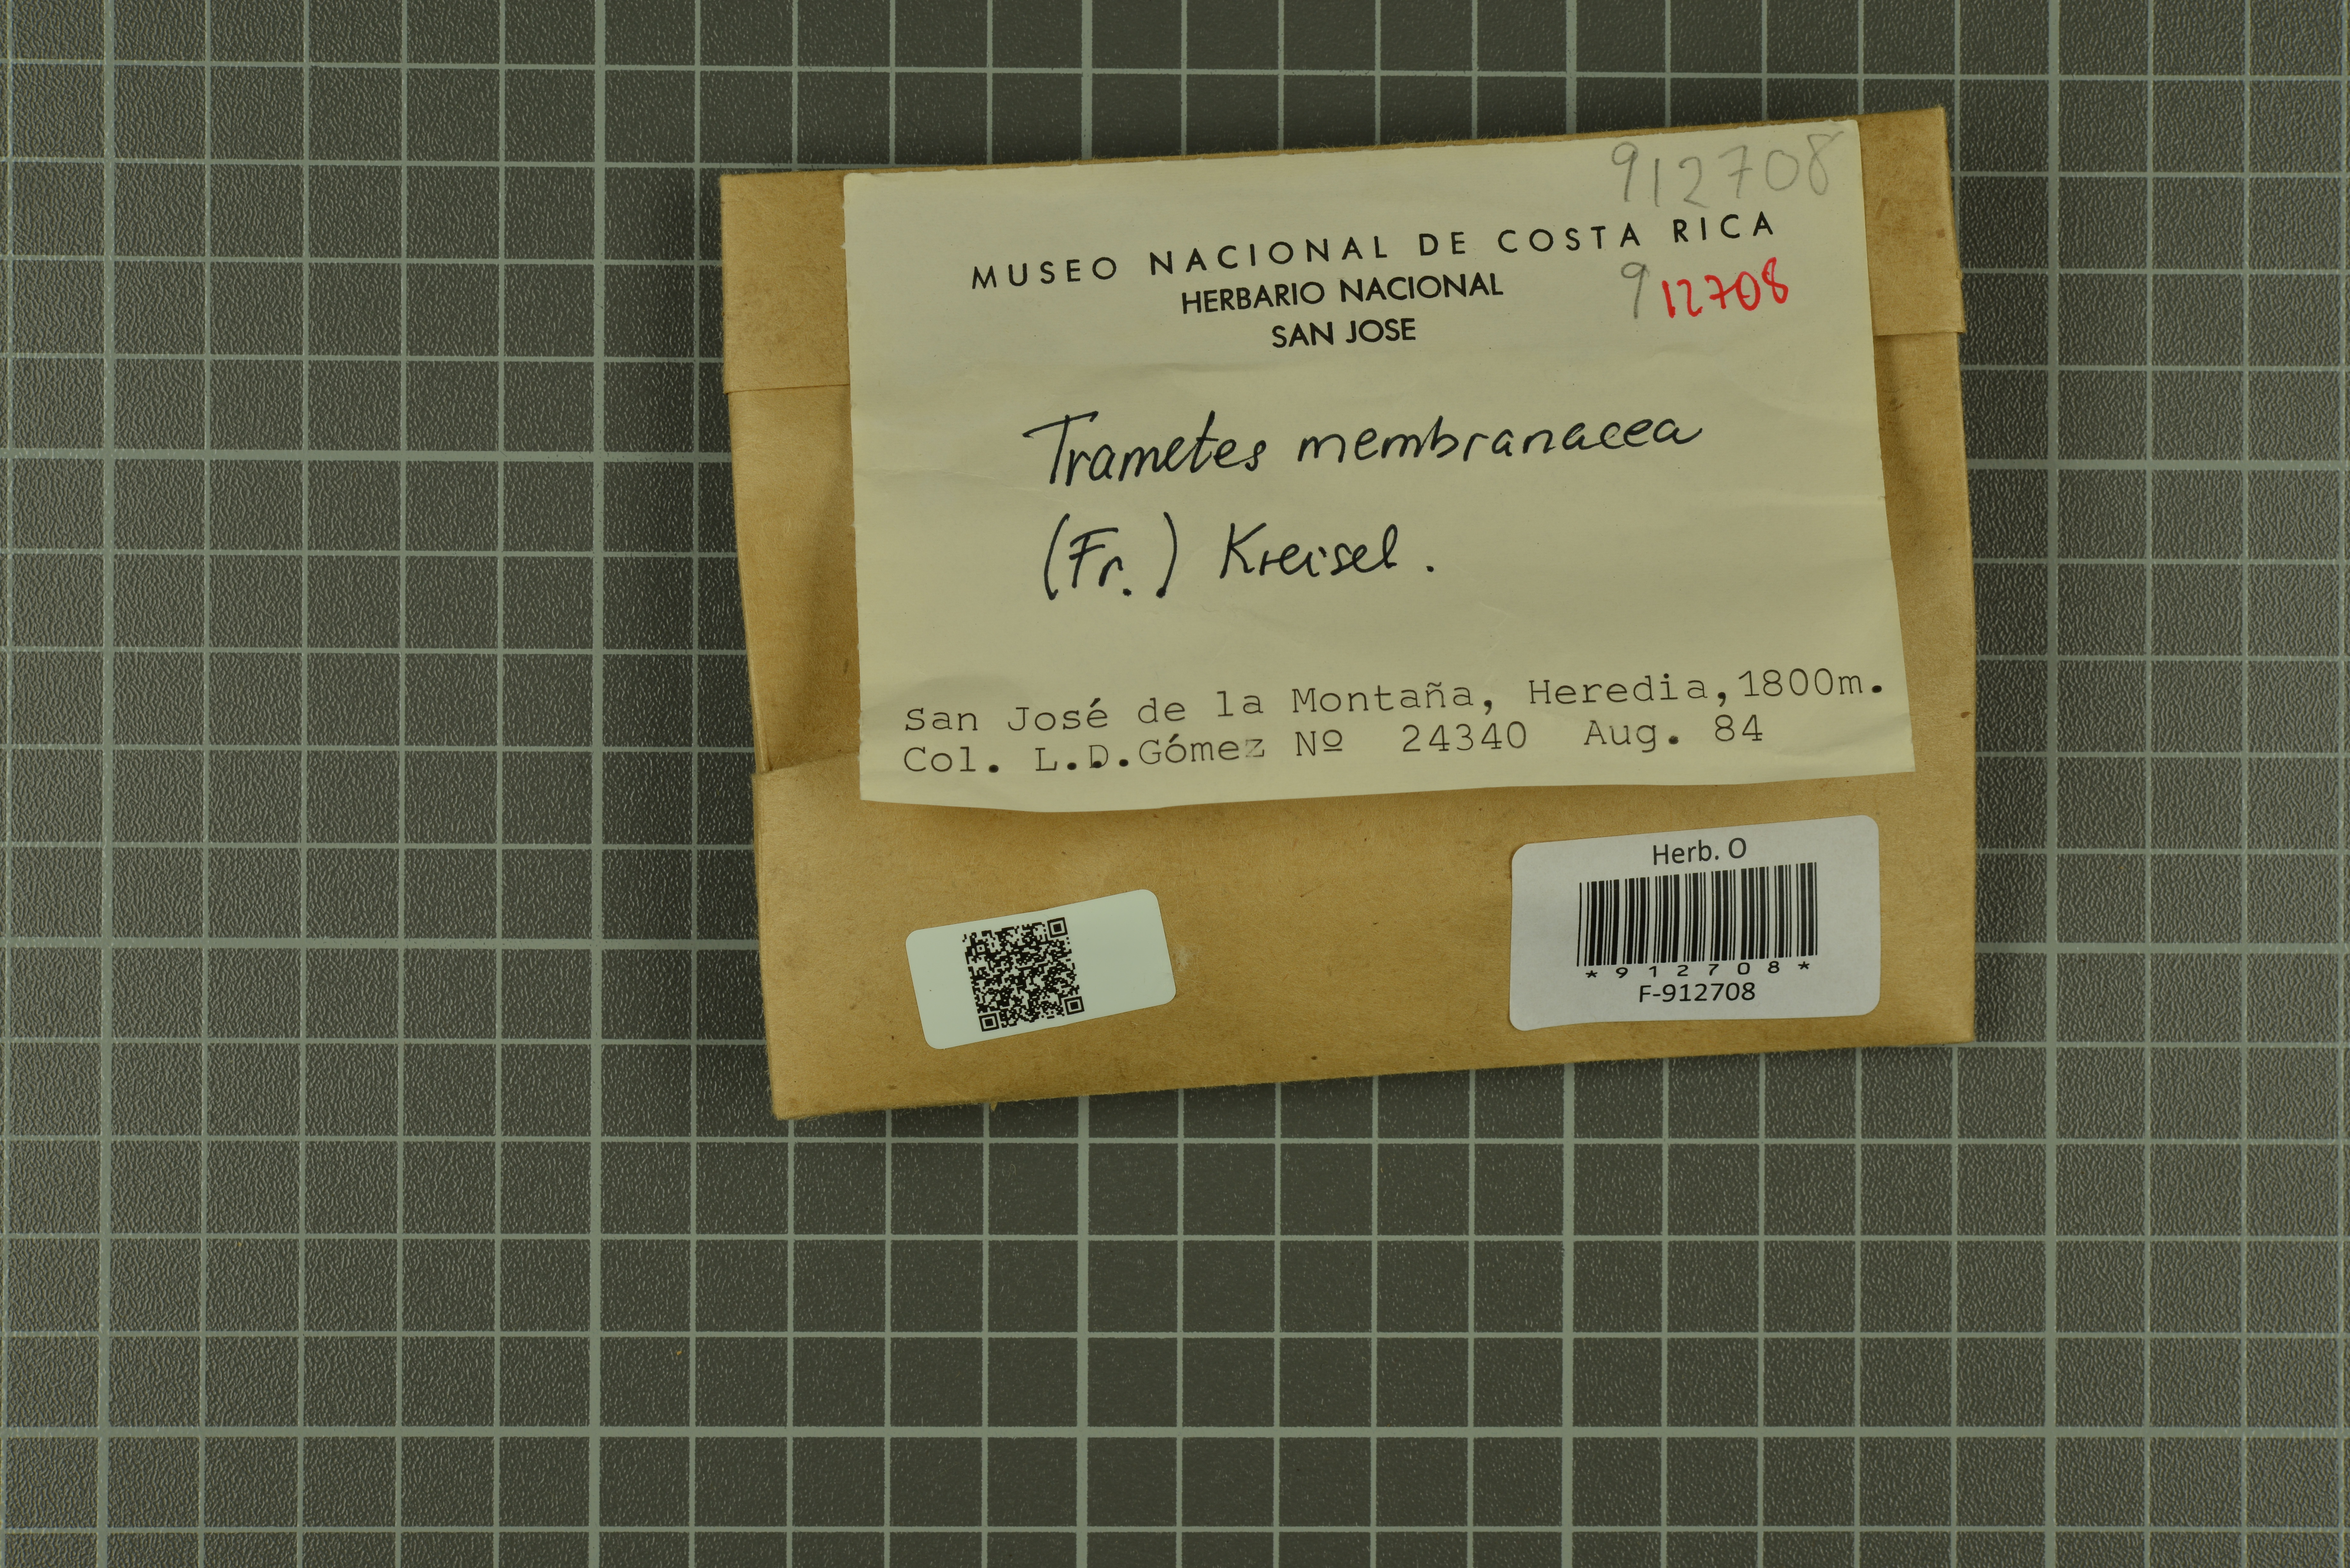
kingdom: Fungi
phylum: Basidiomycota
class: Agaricomycetes
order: Polyporales
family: Polyporaceae
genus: Trametes
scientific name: Trametes membranacea
